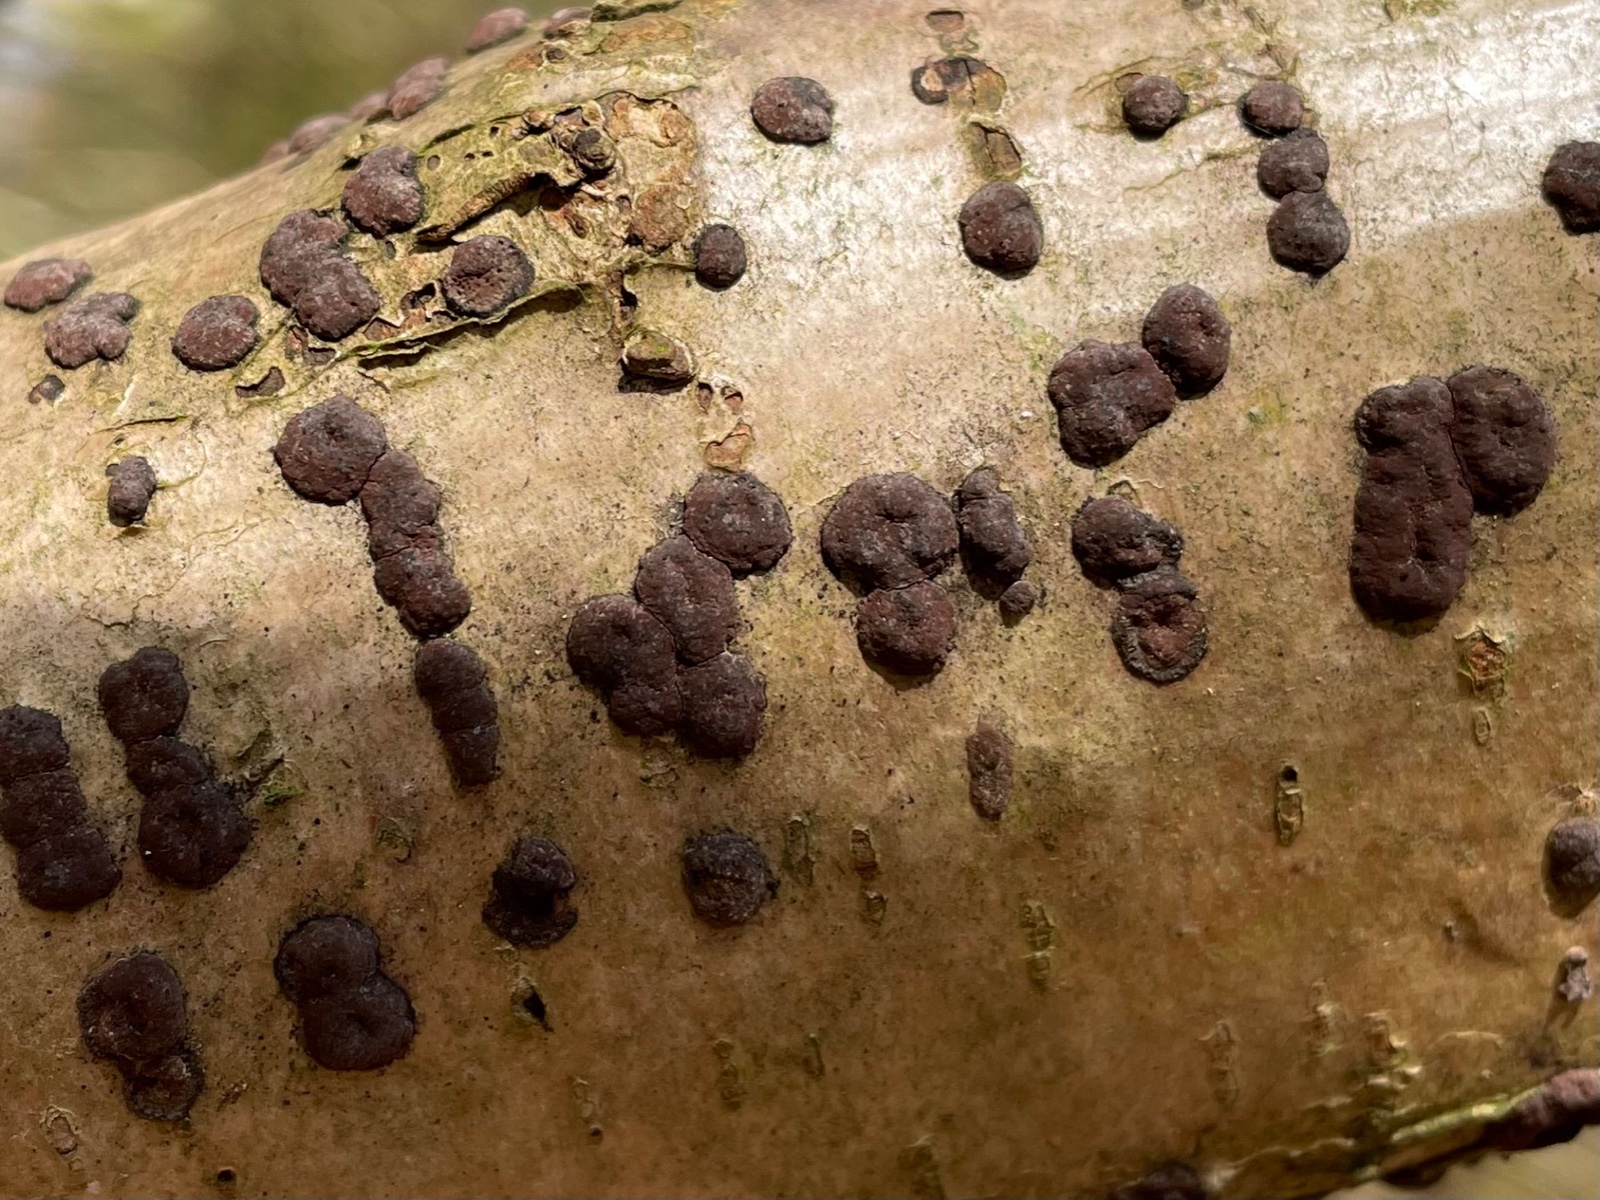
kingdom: Fungi
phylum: Ascomycota
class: Sordariomycetes
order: Xylariales
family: Hypoxylaceae
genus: Hypoxylon
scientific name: Hypoxylon fuscum
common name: kegleformet kulbær
